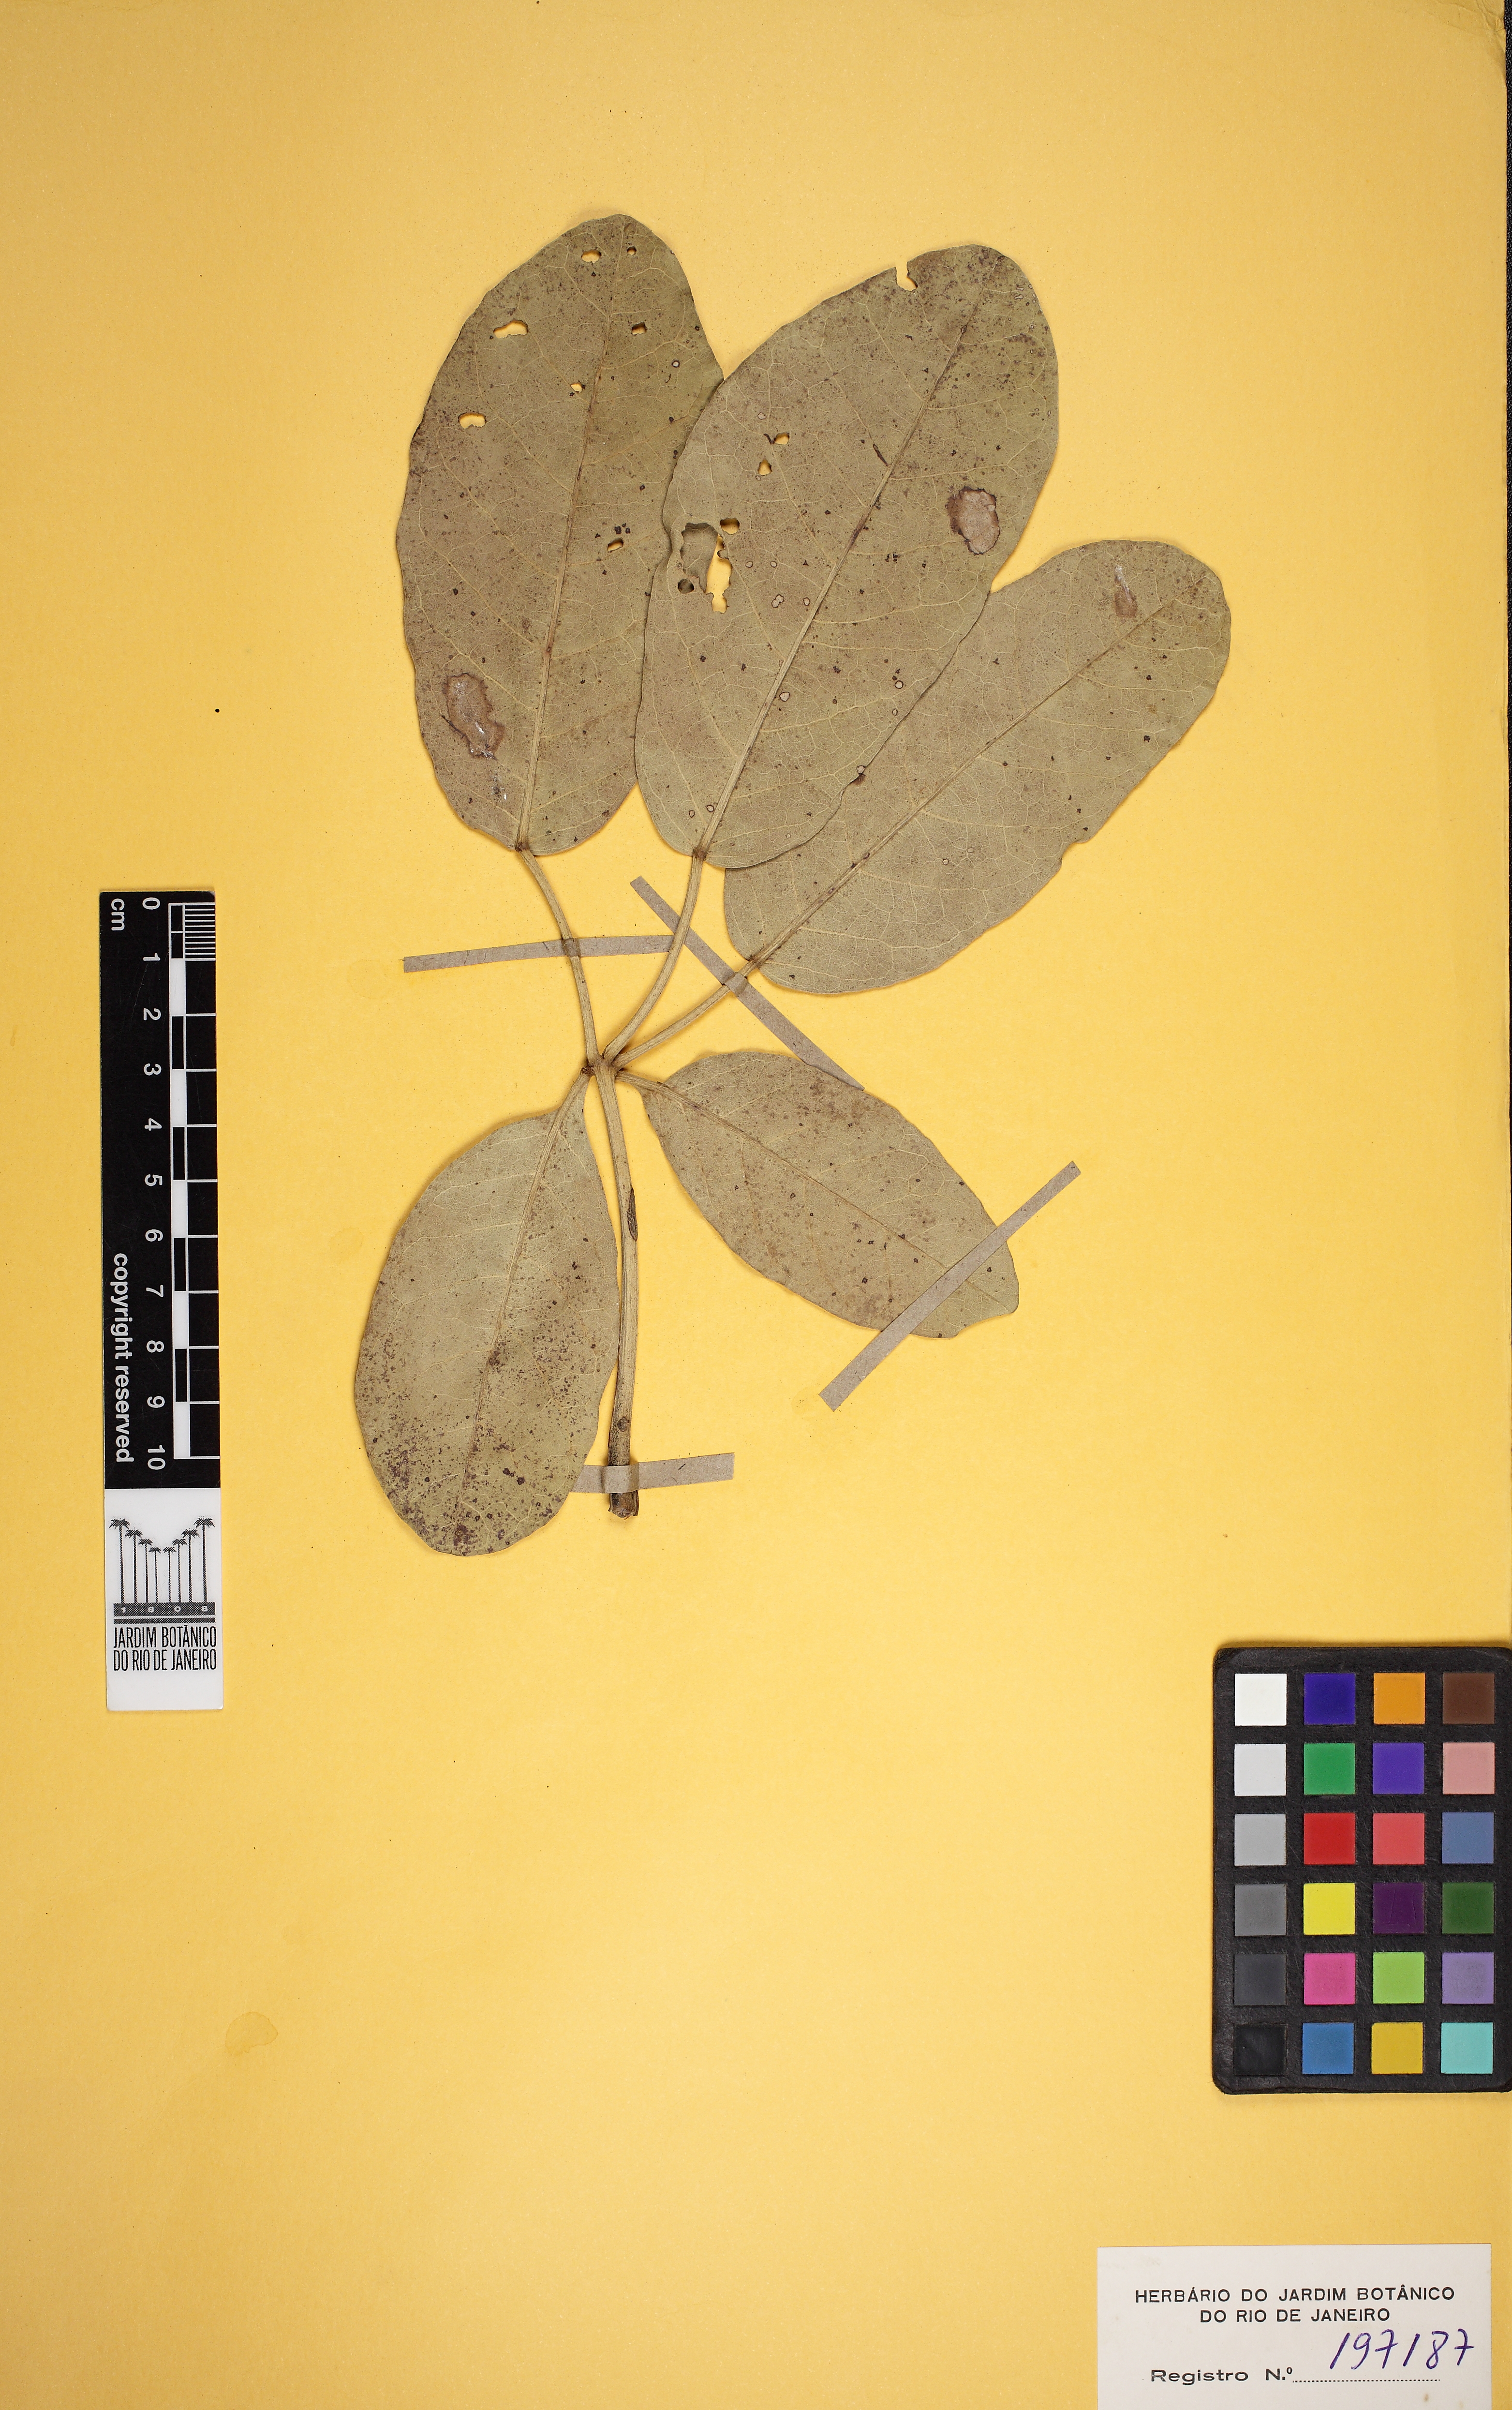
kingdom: Plantae
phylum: Tracheophyta
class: Magnoliopsida
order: Lamiales
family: Bignoniaceae
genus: Tabebuia
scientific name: Tabebuia aurea
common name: Caribbean trumpet-tree
